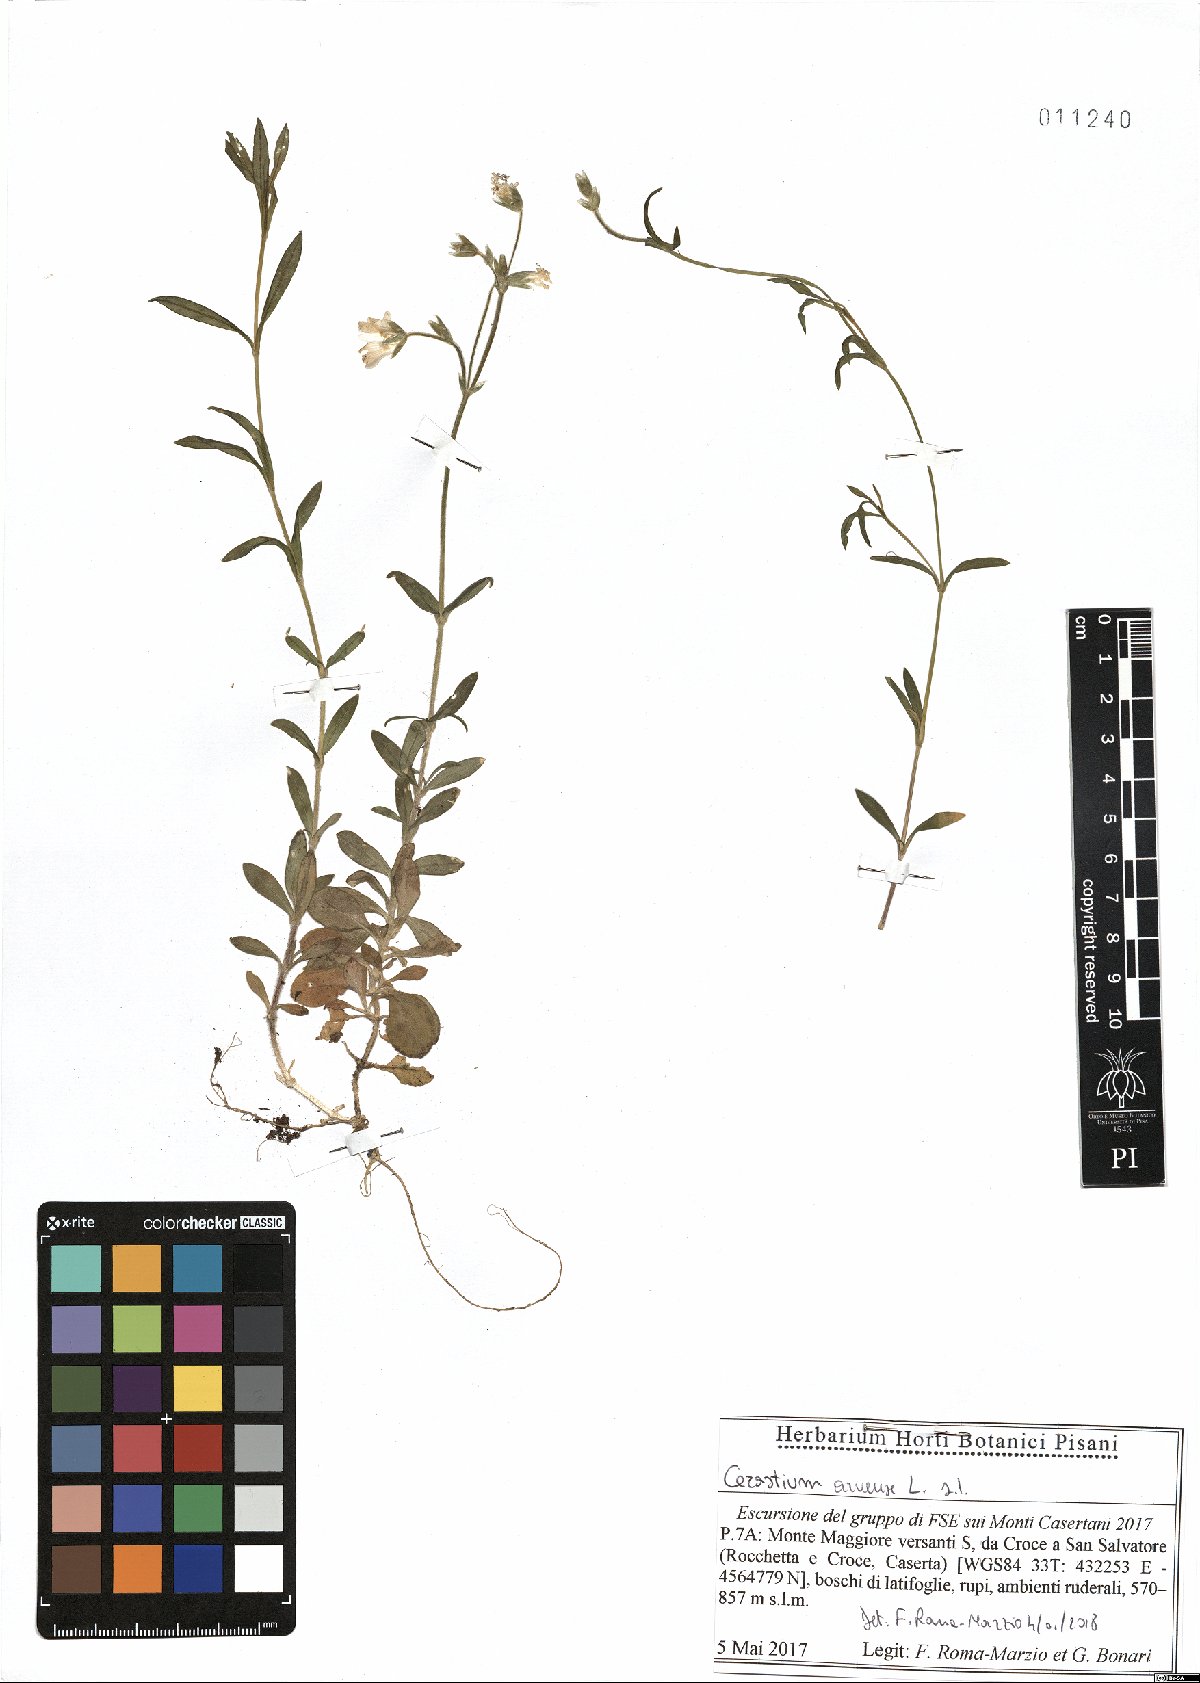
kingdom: Plantae
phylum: Tracheophyta
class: Magnoliopsida
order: Caryophyllales
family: Caryophyllaceae
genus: Cerastium
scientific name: Cerastium arvense
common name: Field mouse-ear
